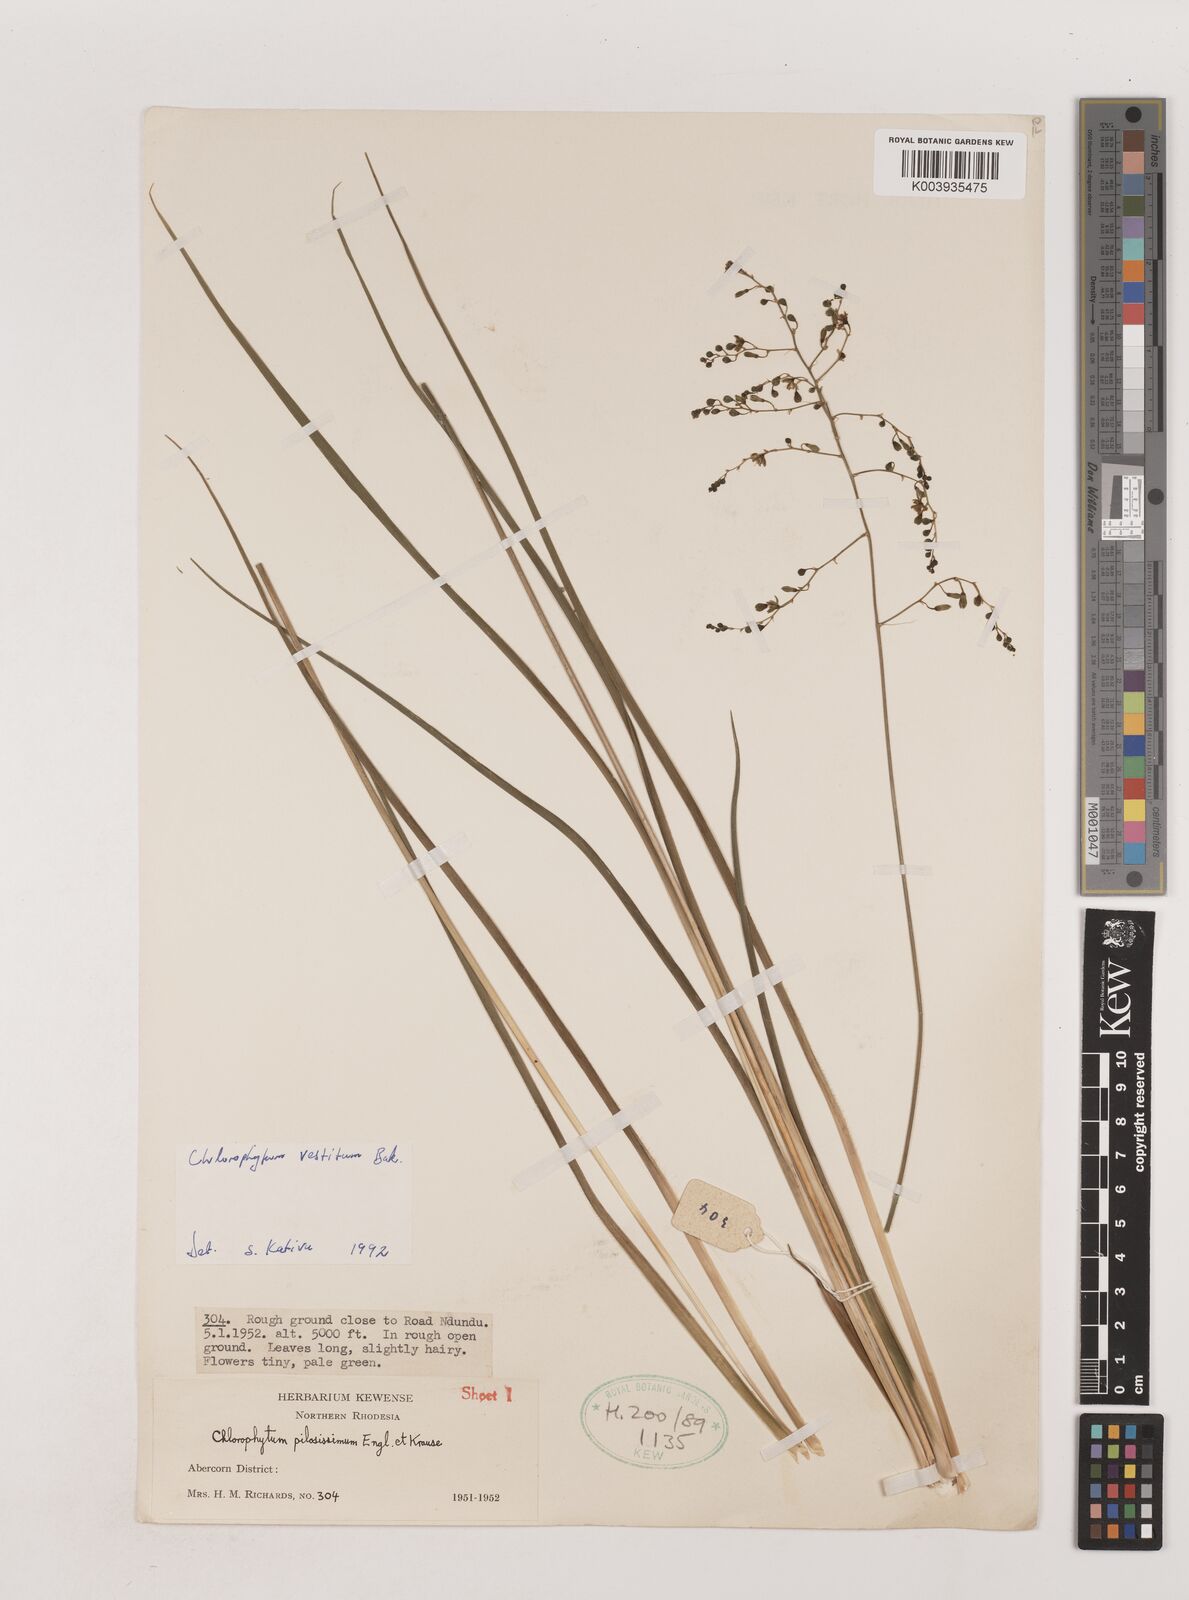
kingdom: Plantae
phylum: Tracheophyta
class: Liliopsida
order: Asparagales
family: Asparagaceae
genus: Chlorophytum
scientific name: Chlorophytum vestitum
